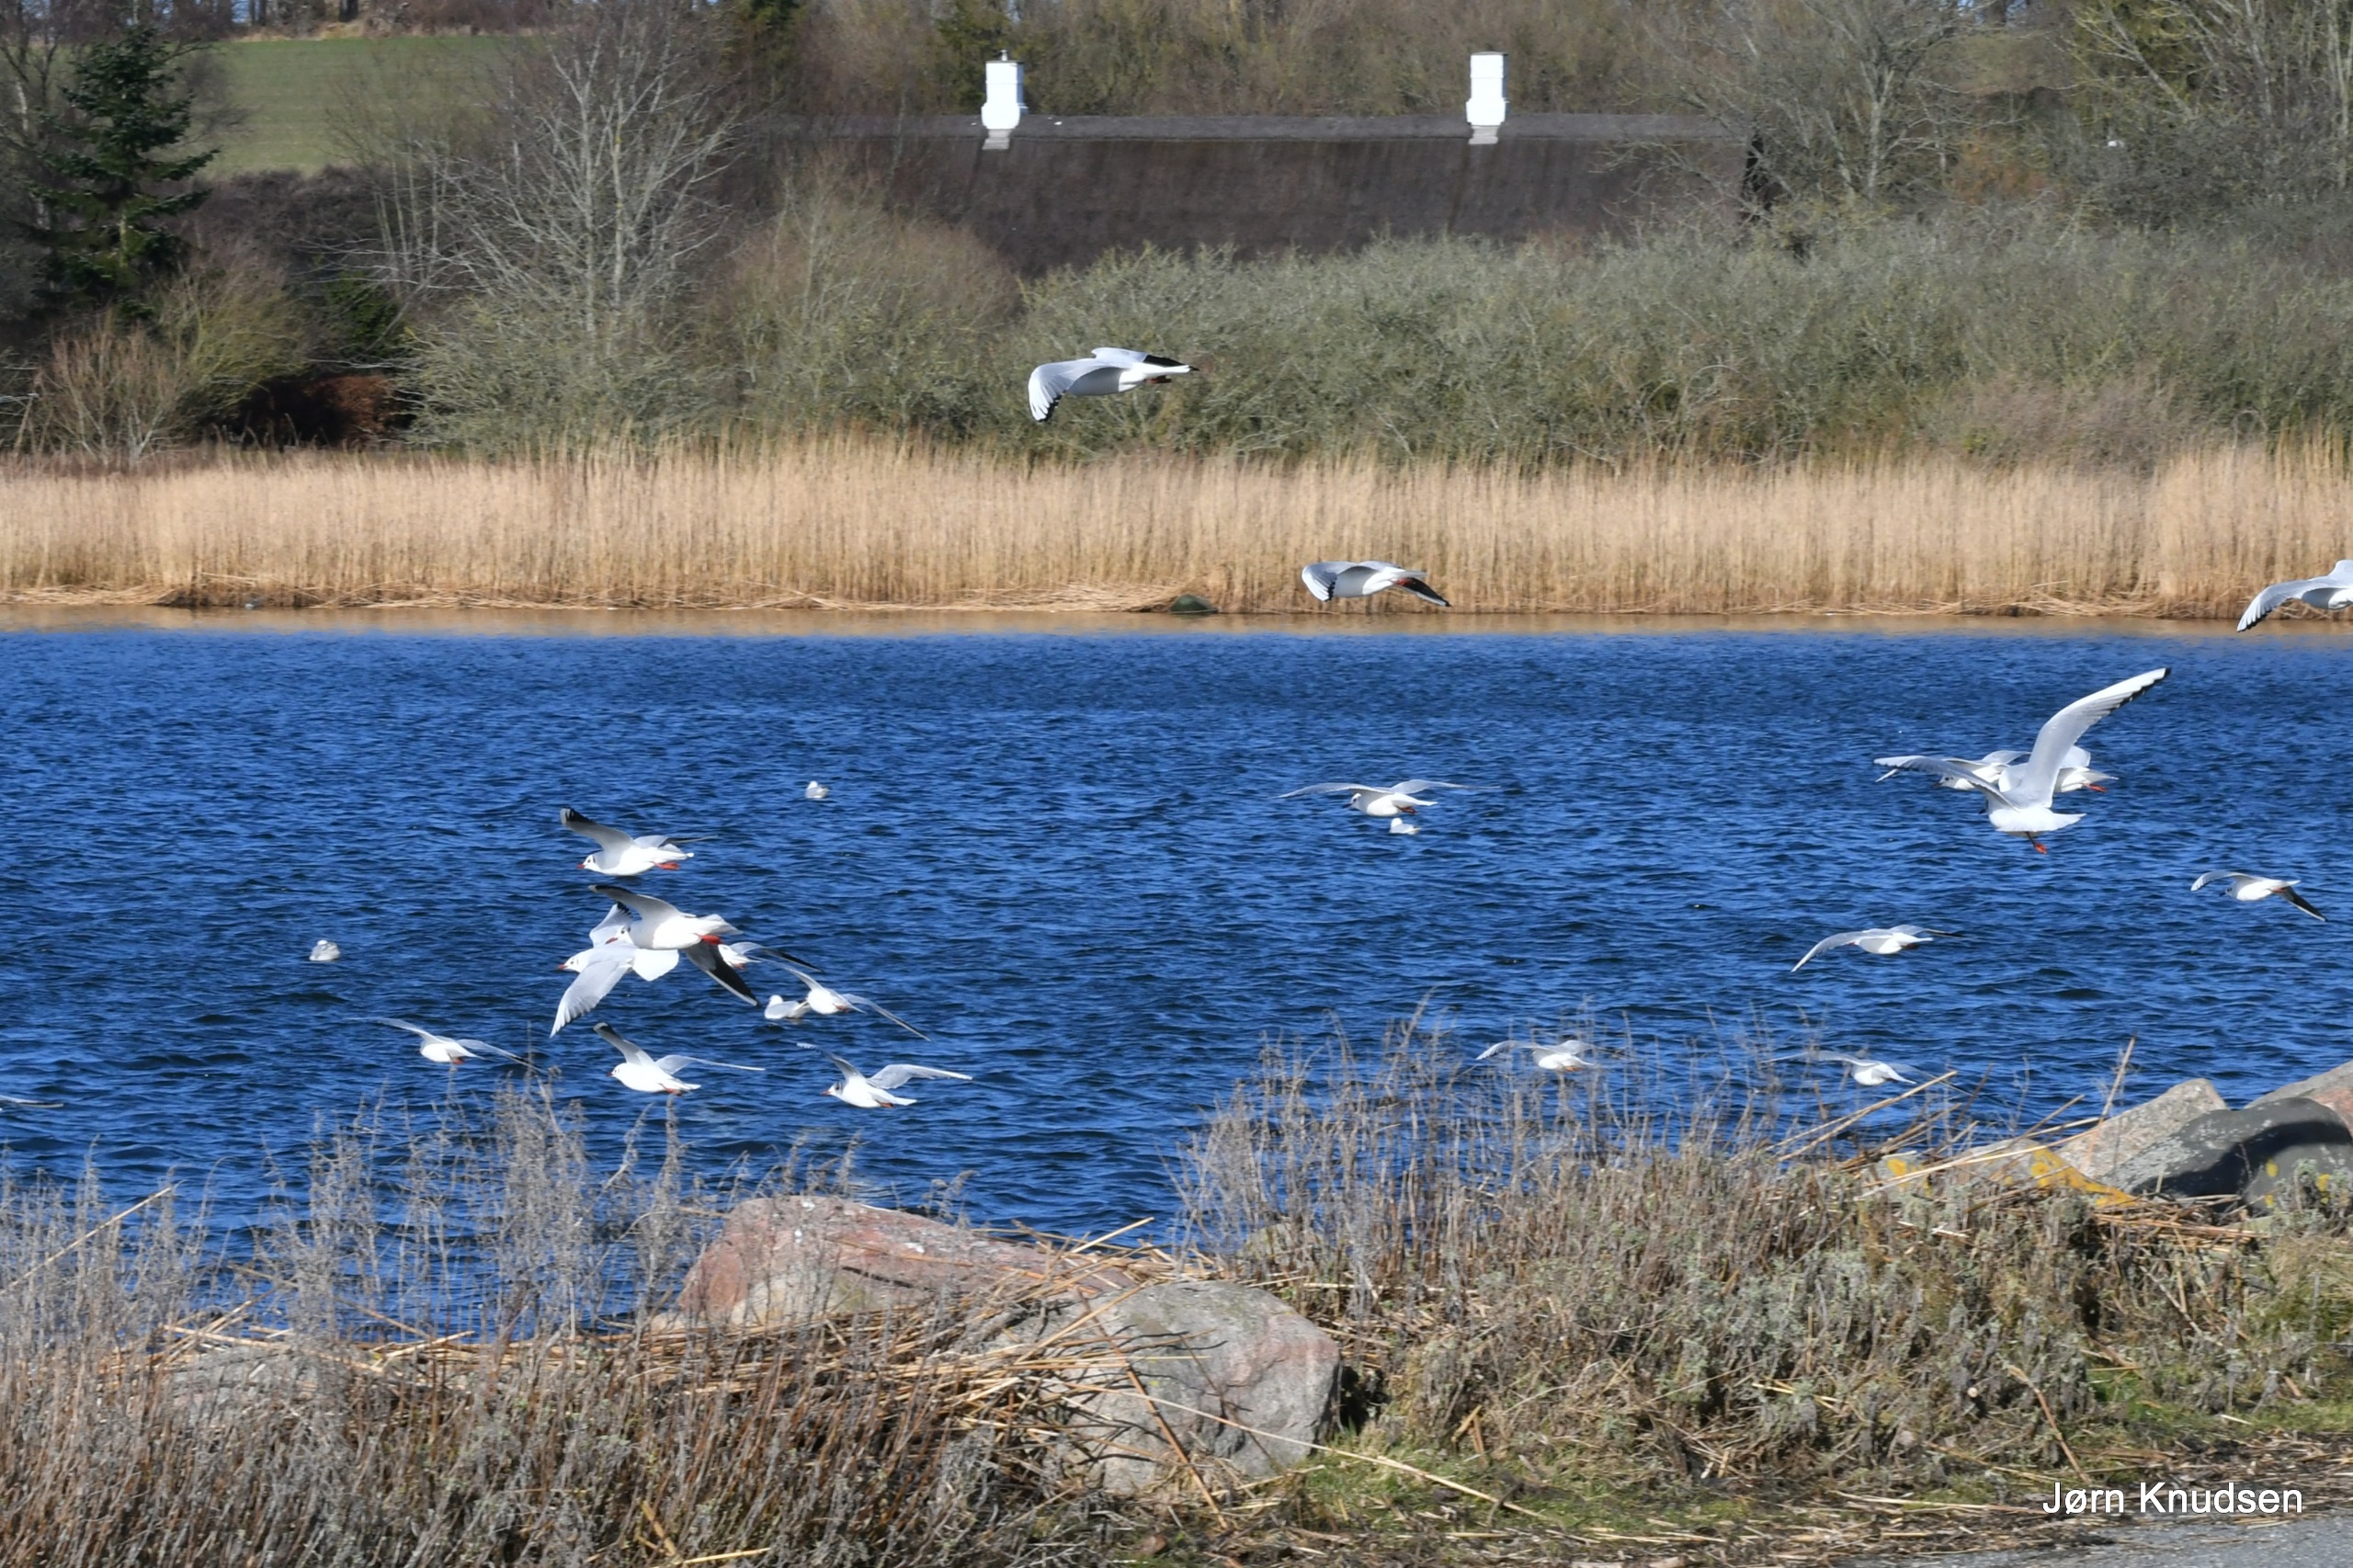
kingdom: Animalia
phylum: Chordata
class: Aves
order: Charadriiformes
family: Laridae
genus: Chroicocephalus
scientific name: Chroicocephalus ridibundus
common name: Hættemåge
